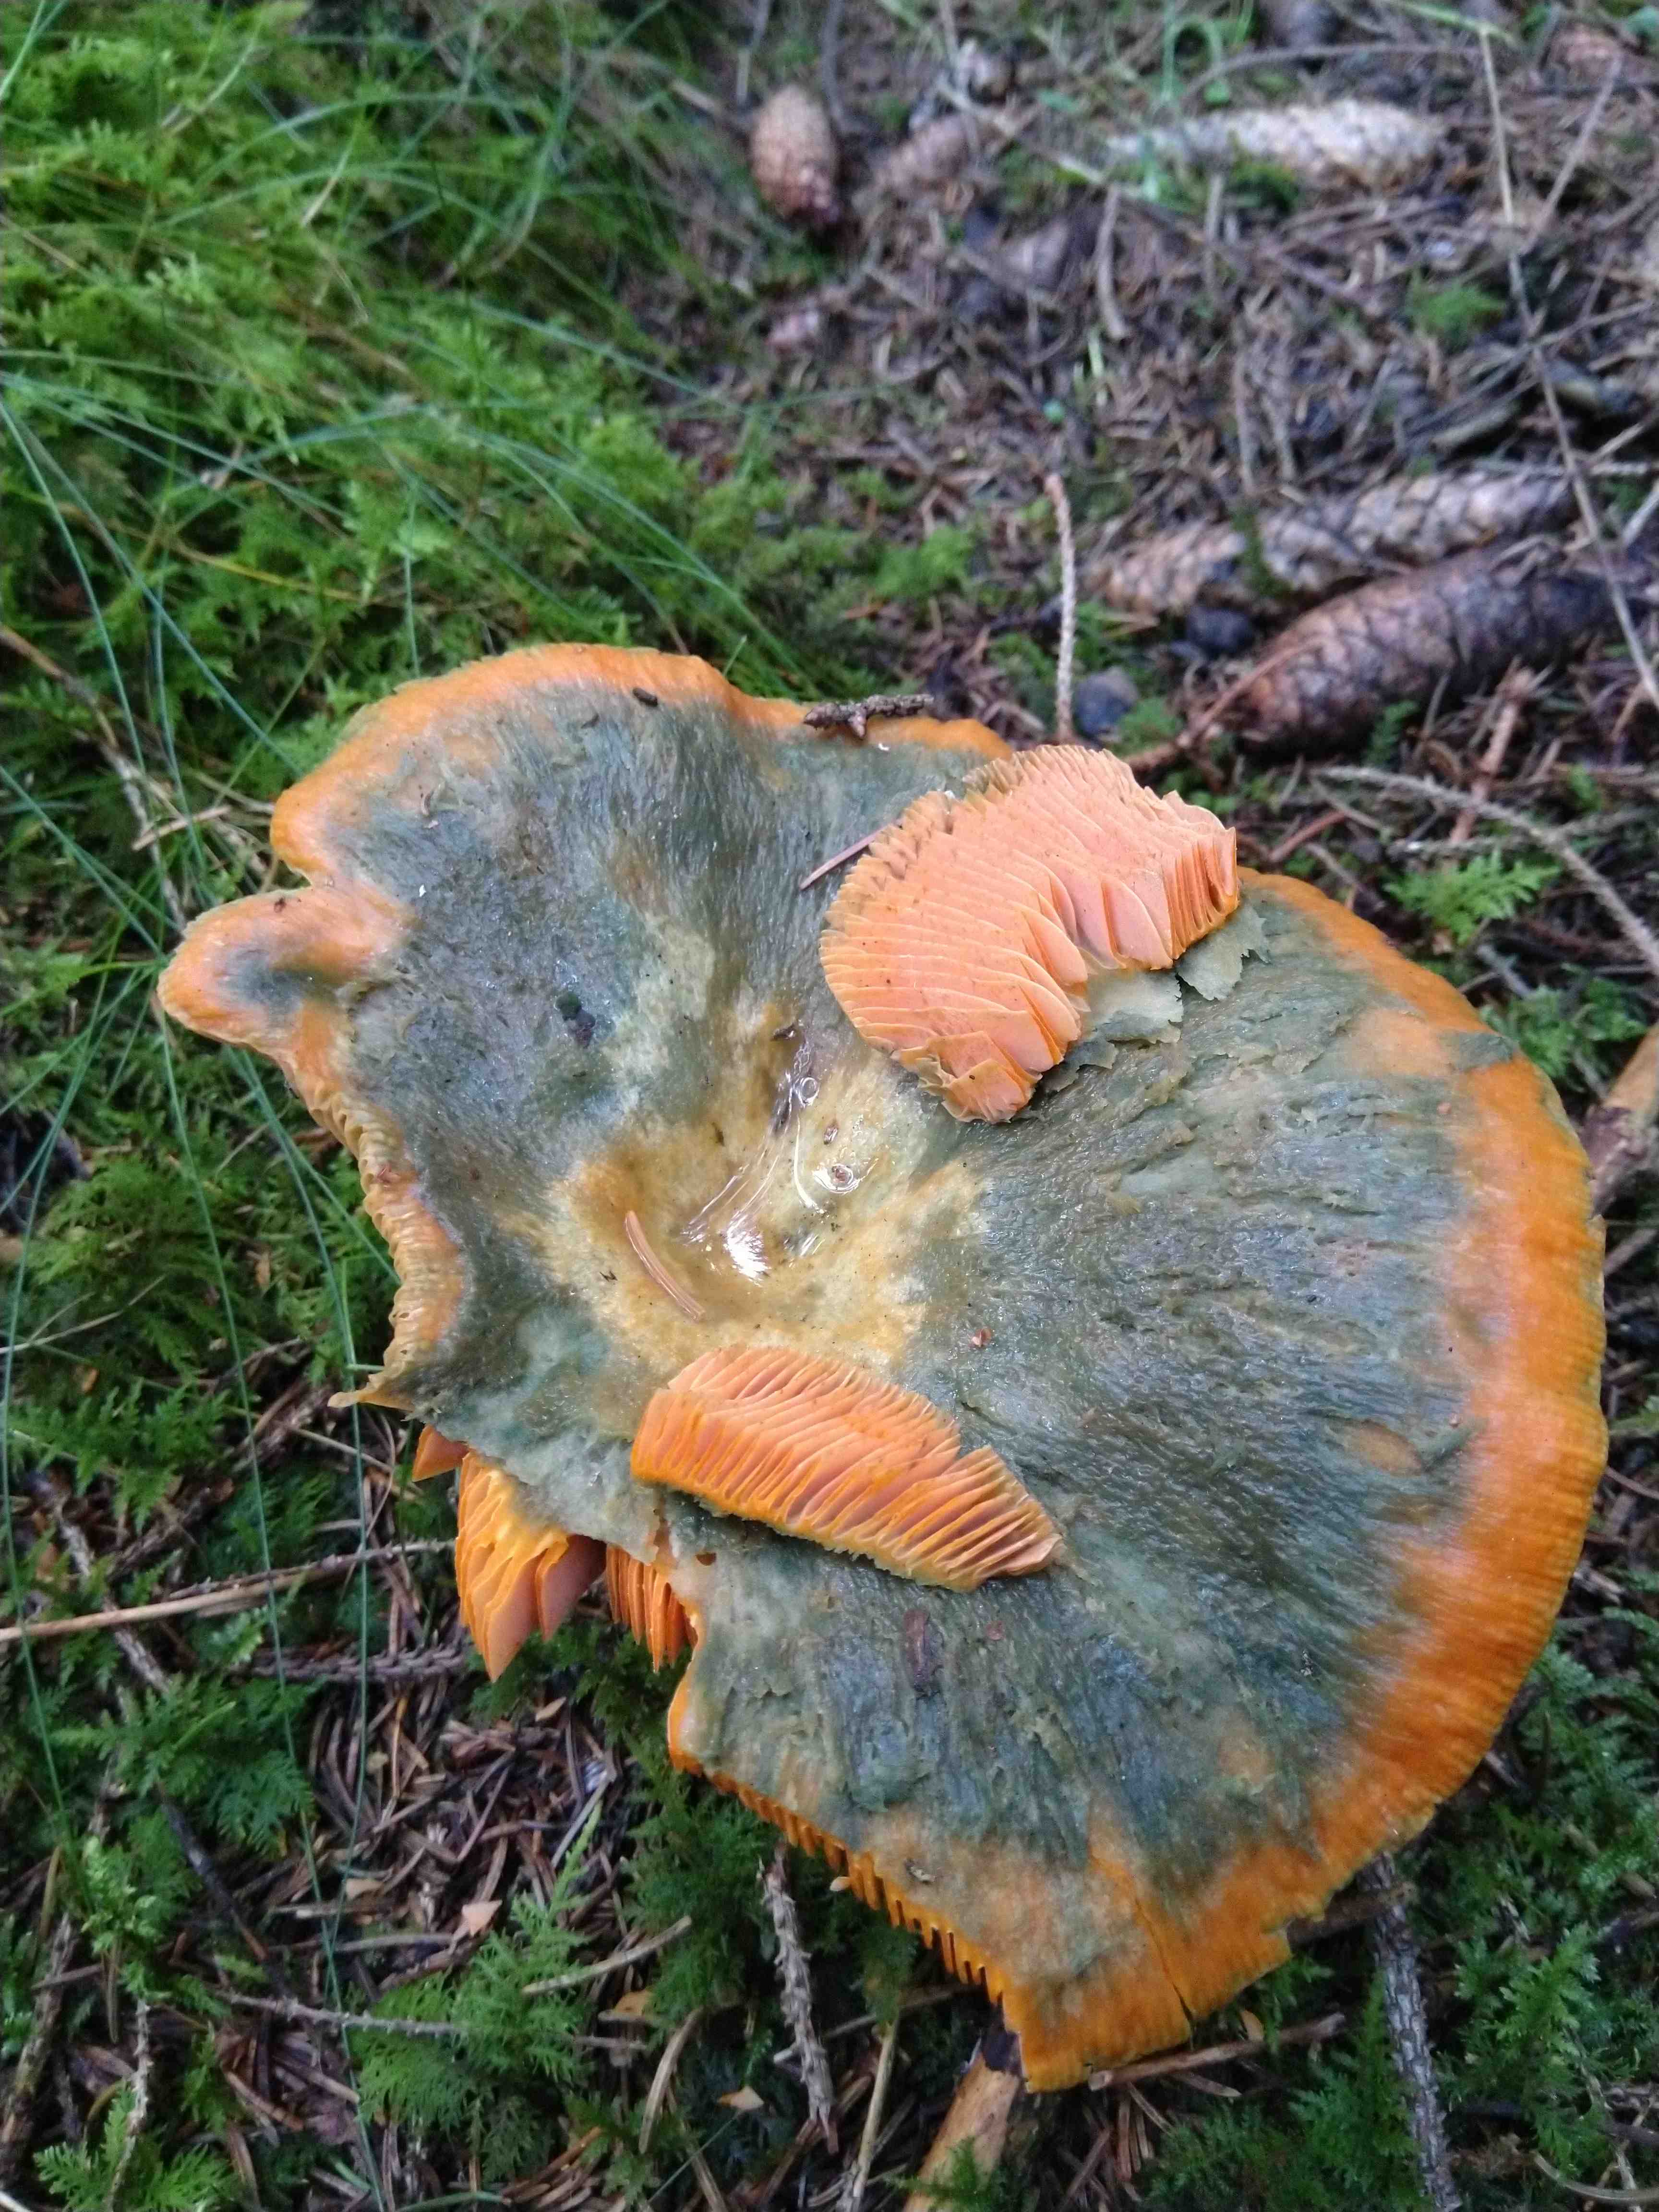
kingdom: Fungi
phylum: Basidiomycota
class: Agaricomycetes
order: Russulales
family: Russulaceae
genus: Lactarius
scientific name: Lactarius deterrimus
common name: gran-mælkehat
